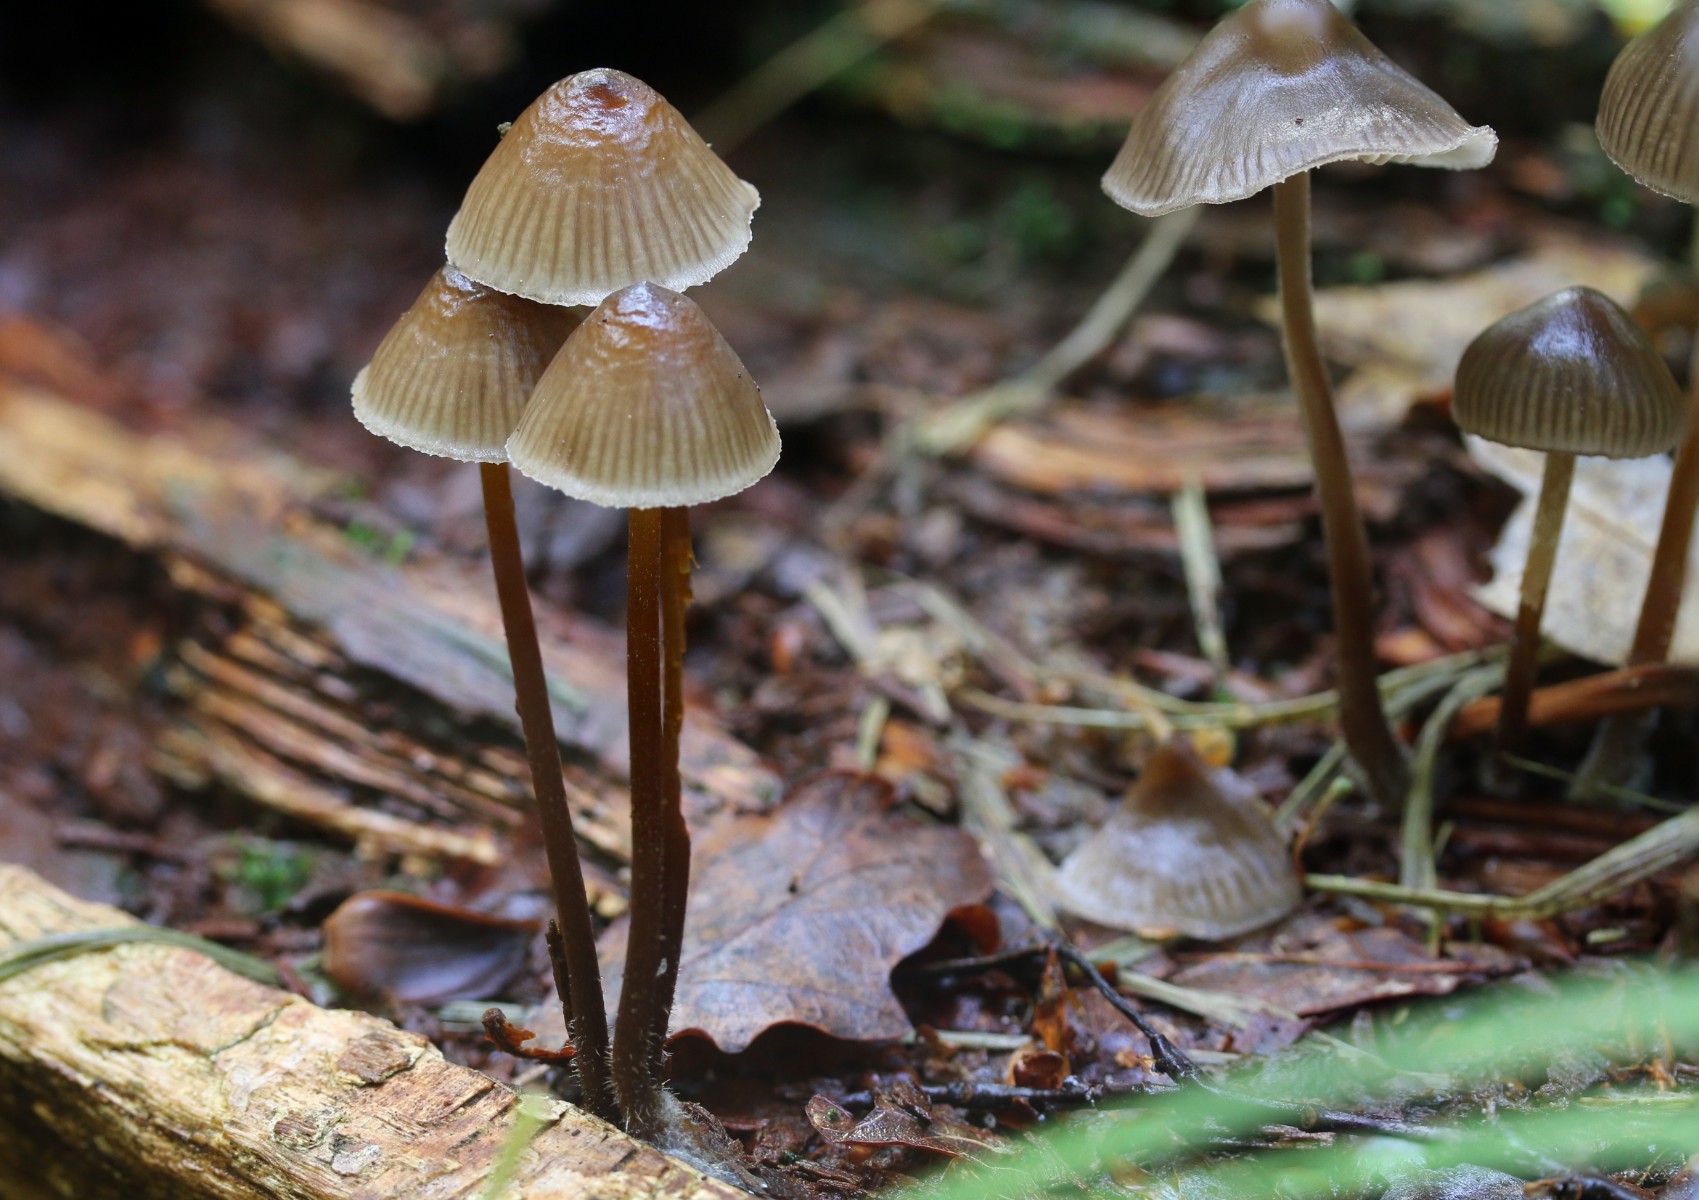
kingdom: Fungi
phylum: Basidiomycota
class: Agaricomycetes
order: Agaricales
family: Mycenaceae
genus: Mycena
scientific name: Mycena inclinata
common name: nikkende huesvamp
